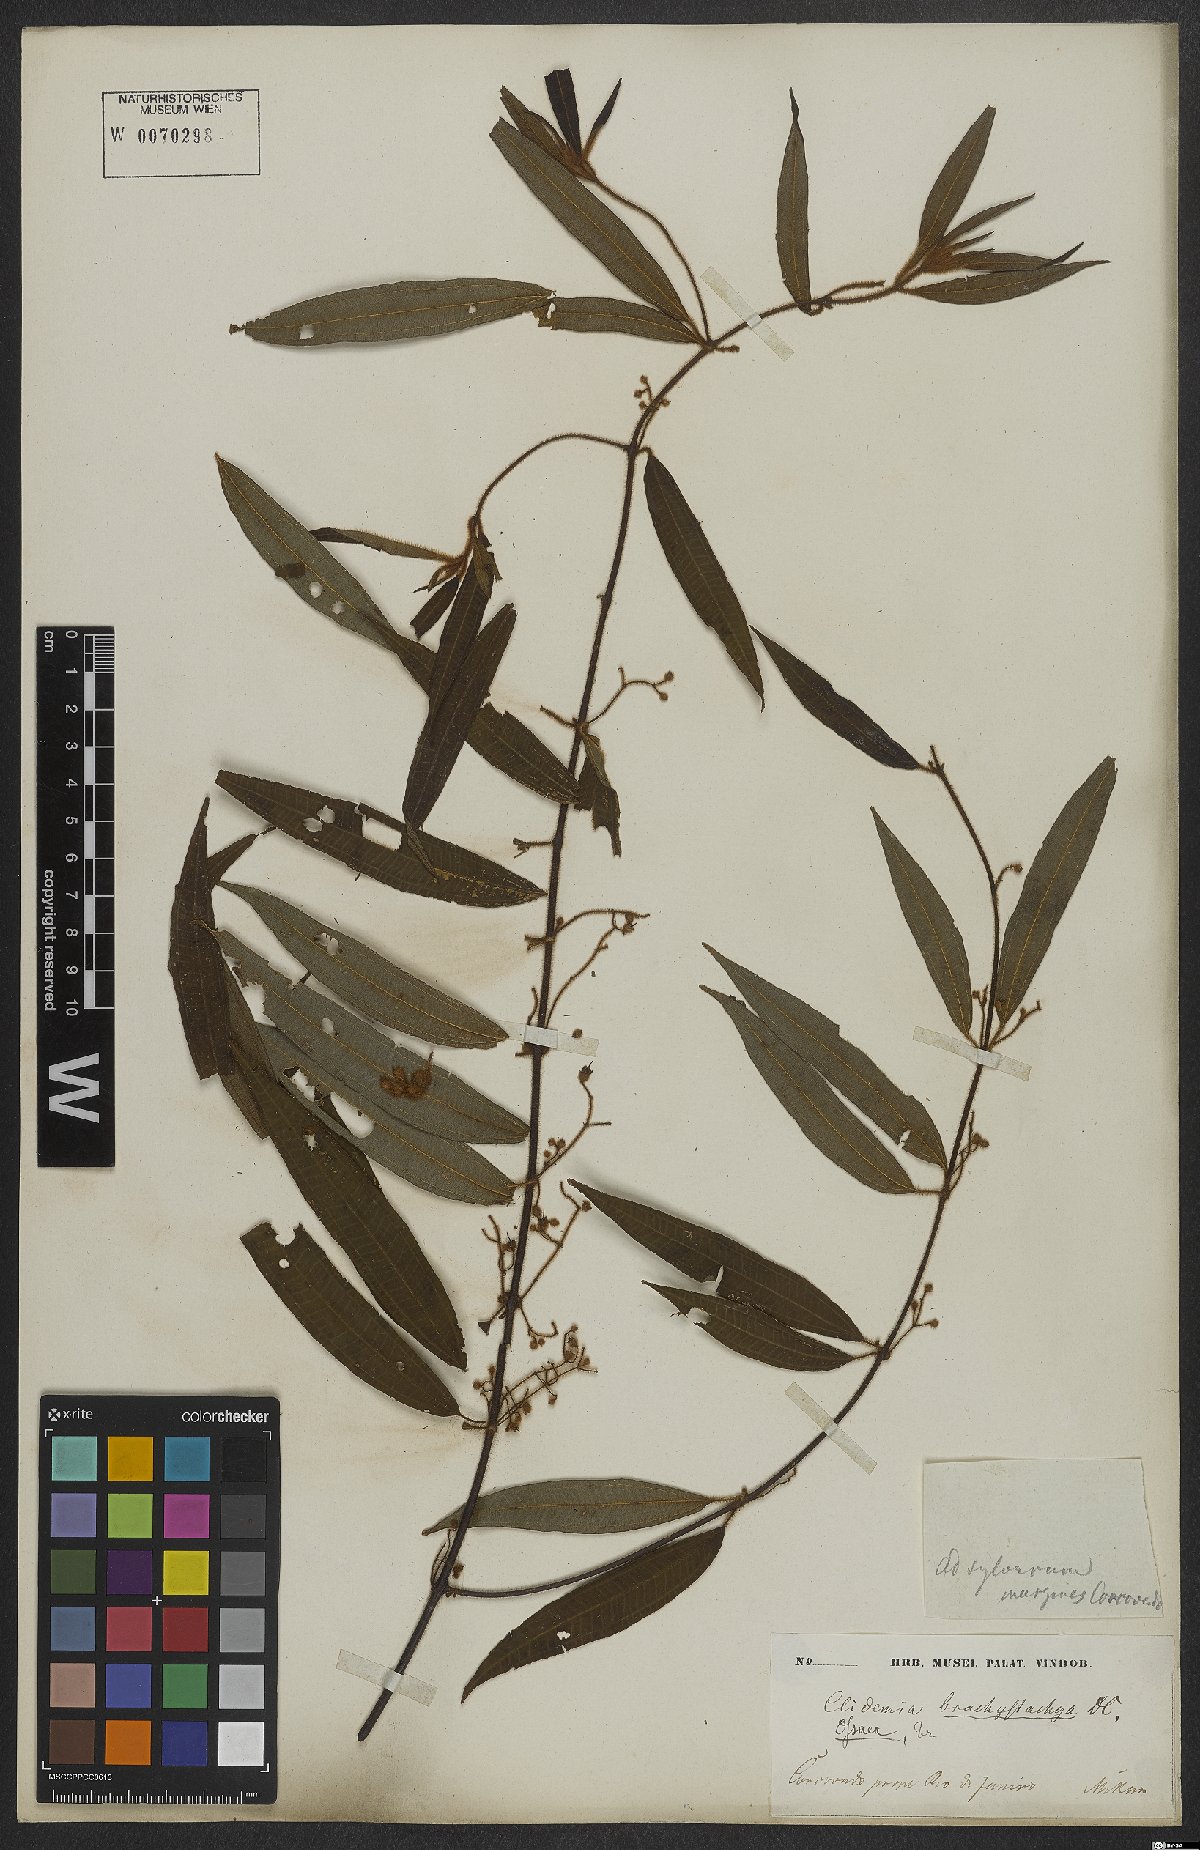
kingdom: Plantae
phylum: Tracheophyta
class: Magnoliopsida
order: Myrtales
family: Melastomataceae
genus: Miconia
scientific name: Miconia amygdaloides
